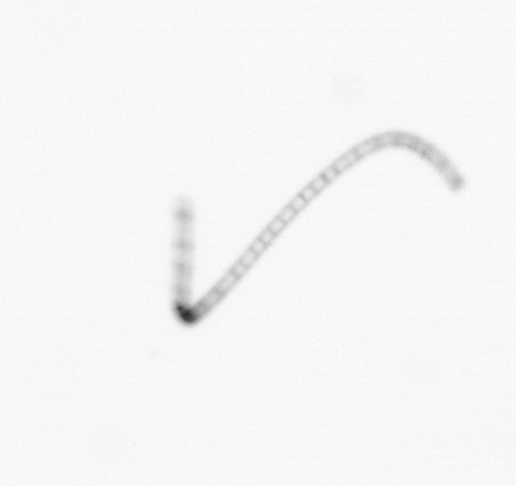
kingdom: Chromista
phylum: Ochrophyta
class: Bacillariophyceae
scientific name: Bacillariophyceae
